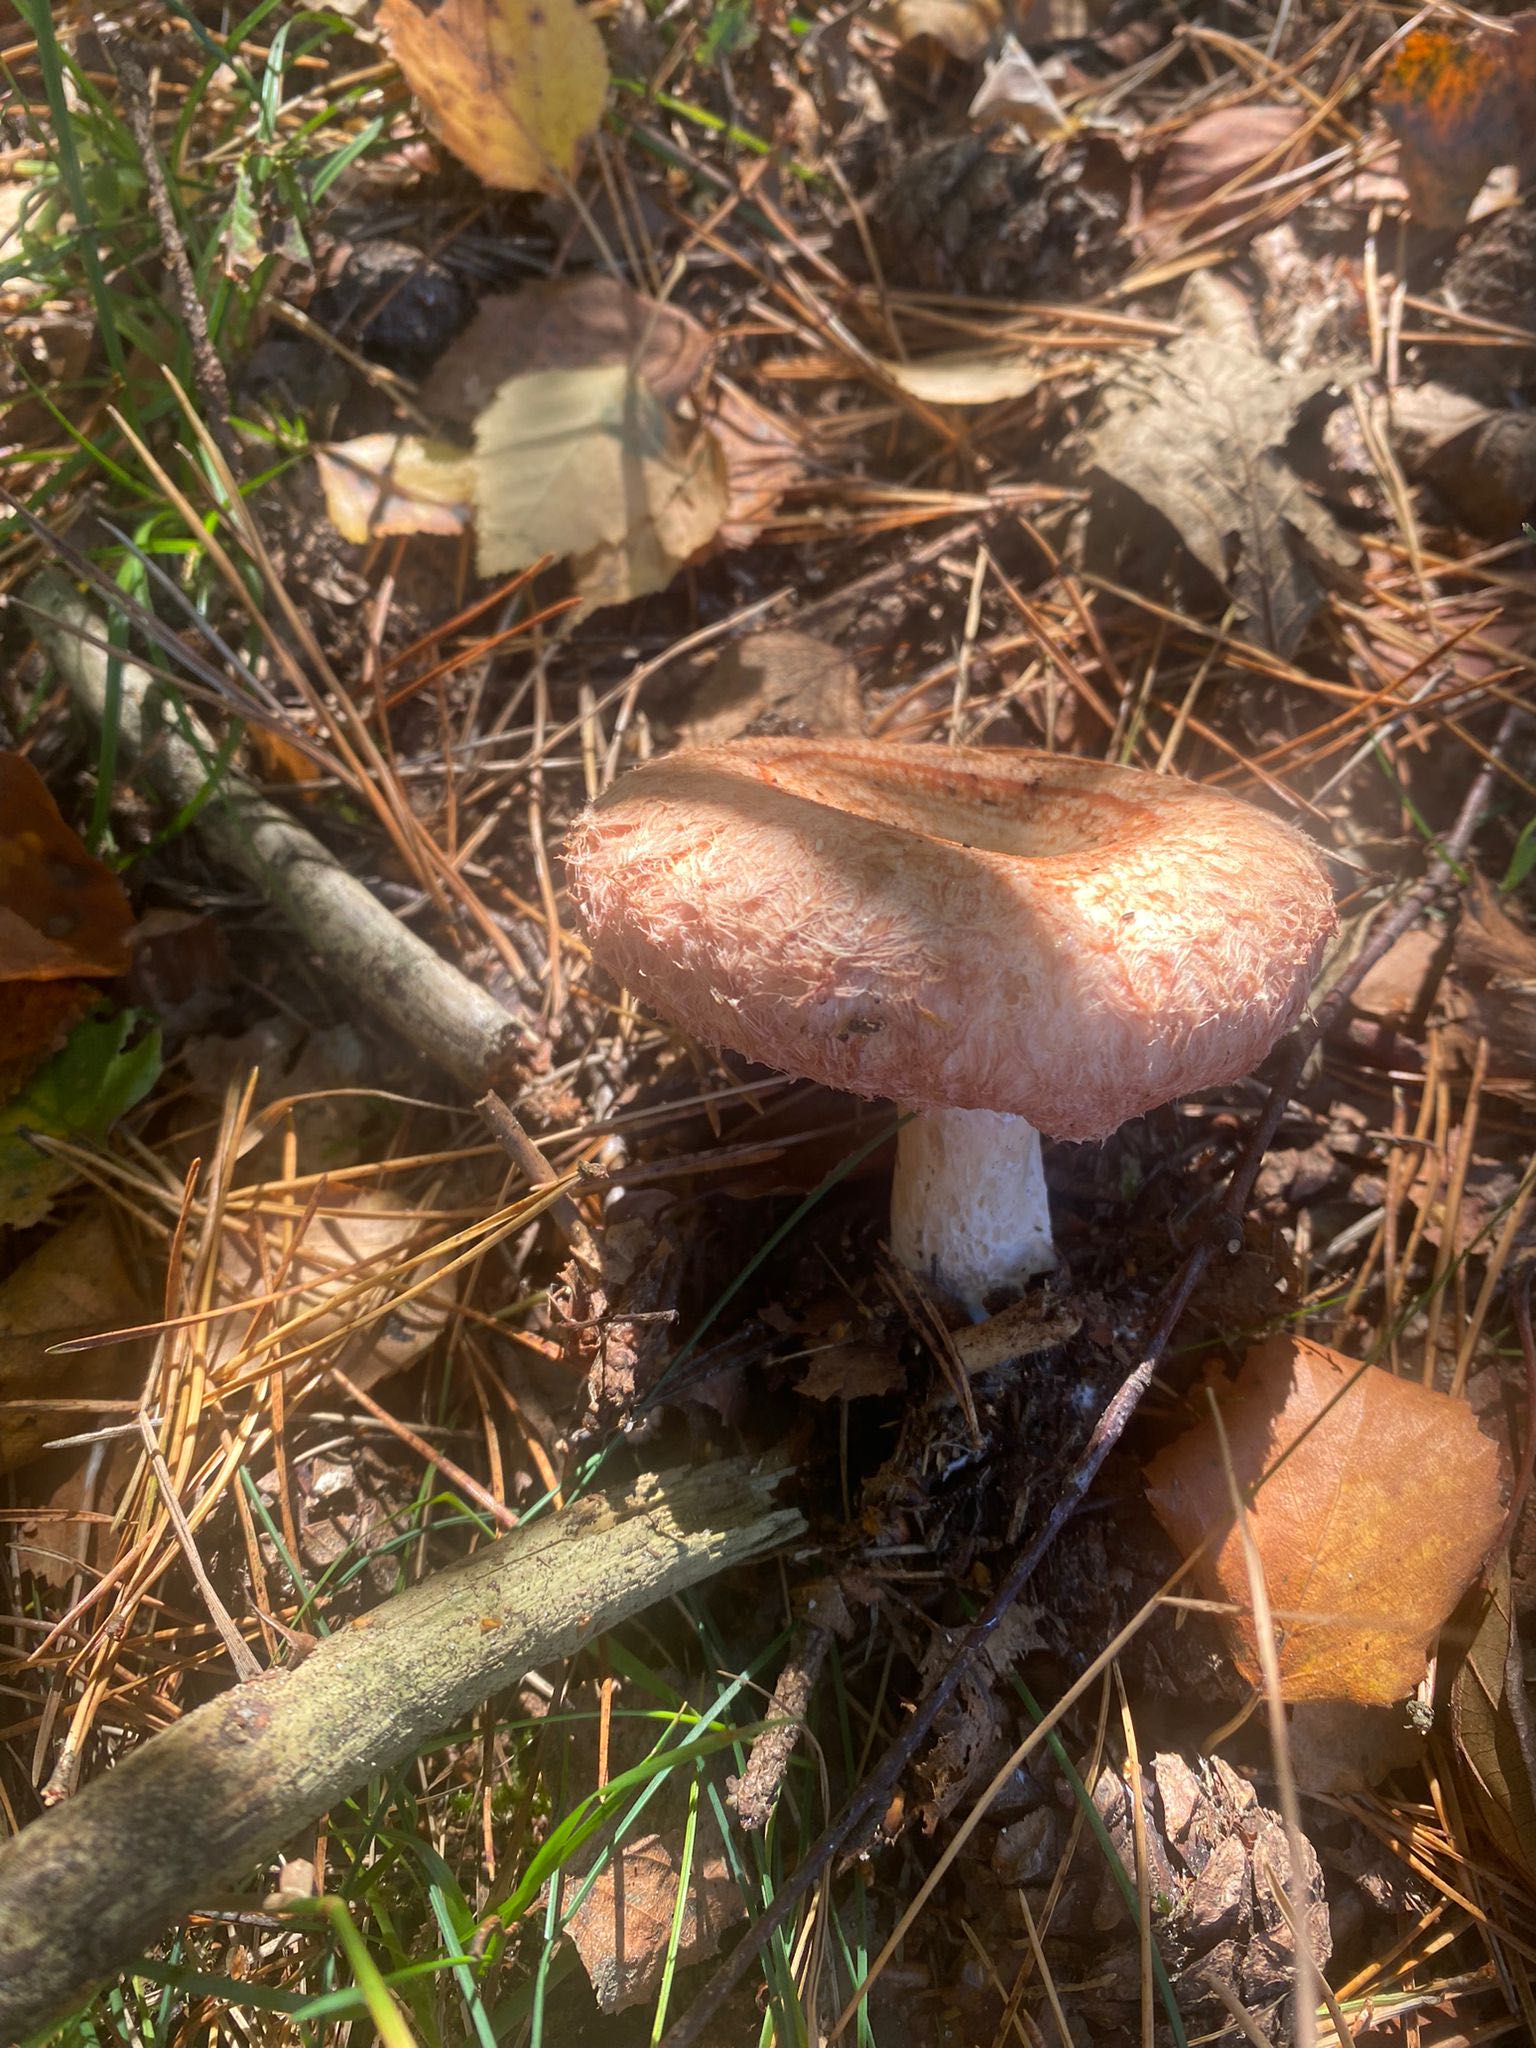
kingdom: Fungi
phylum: Basidiomycota
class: Agaricomycetes
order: Russulales
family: Russulaceae
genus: Lactarius
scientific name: Lactarius torminosus
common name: skægget mælkehat
